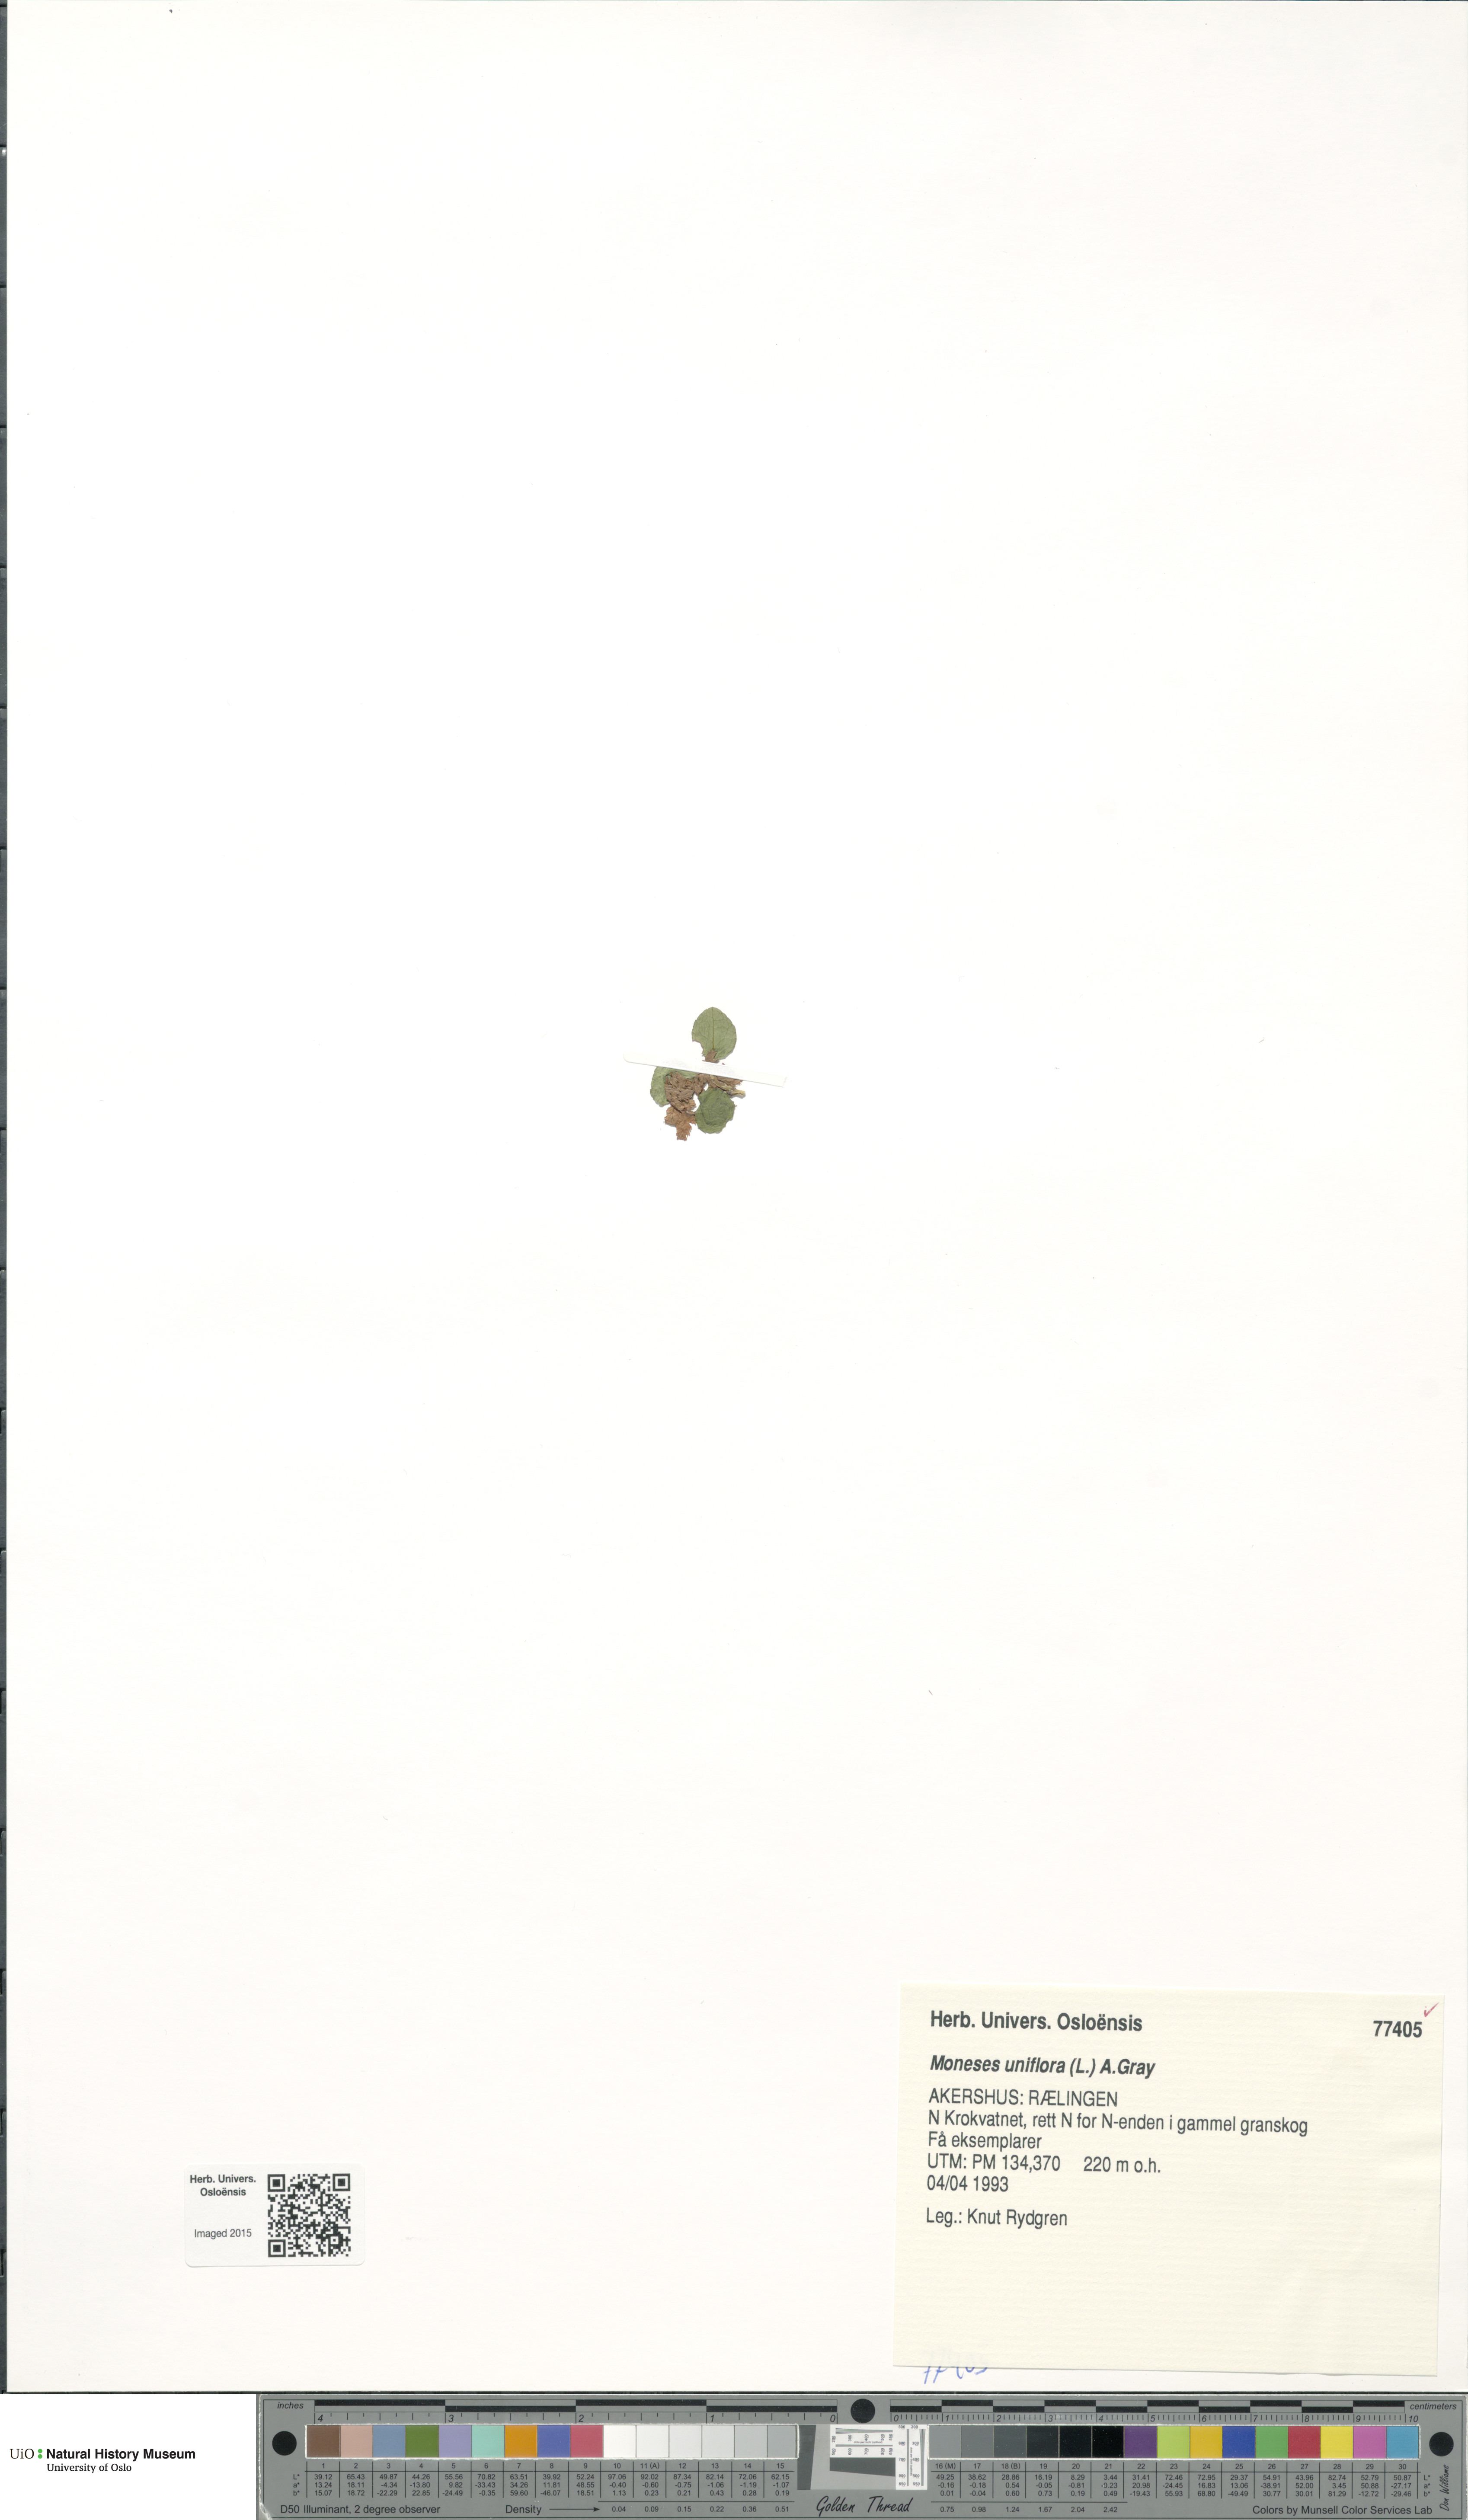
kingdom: Plantae
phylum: Tracheophyta
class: Magnoliopsida
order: Ericales
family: Ericaceae
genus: Moneses
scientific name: Moneses uniflora
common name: One-flowered wintergreen
